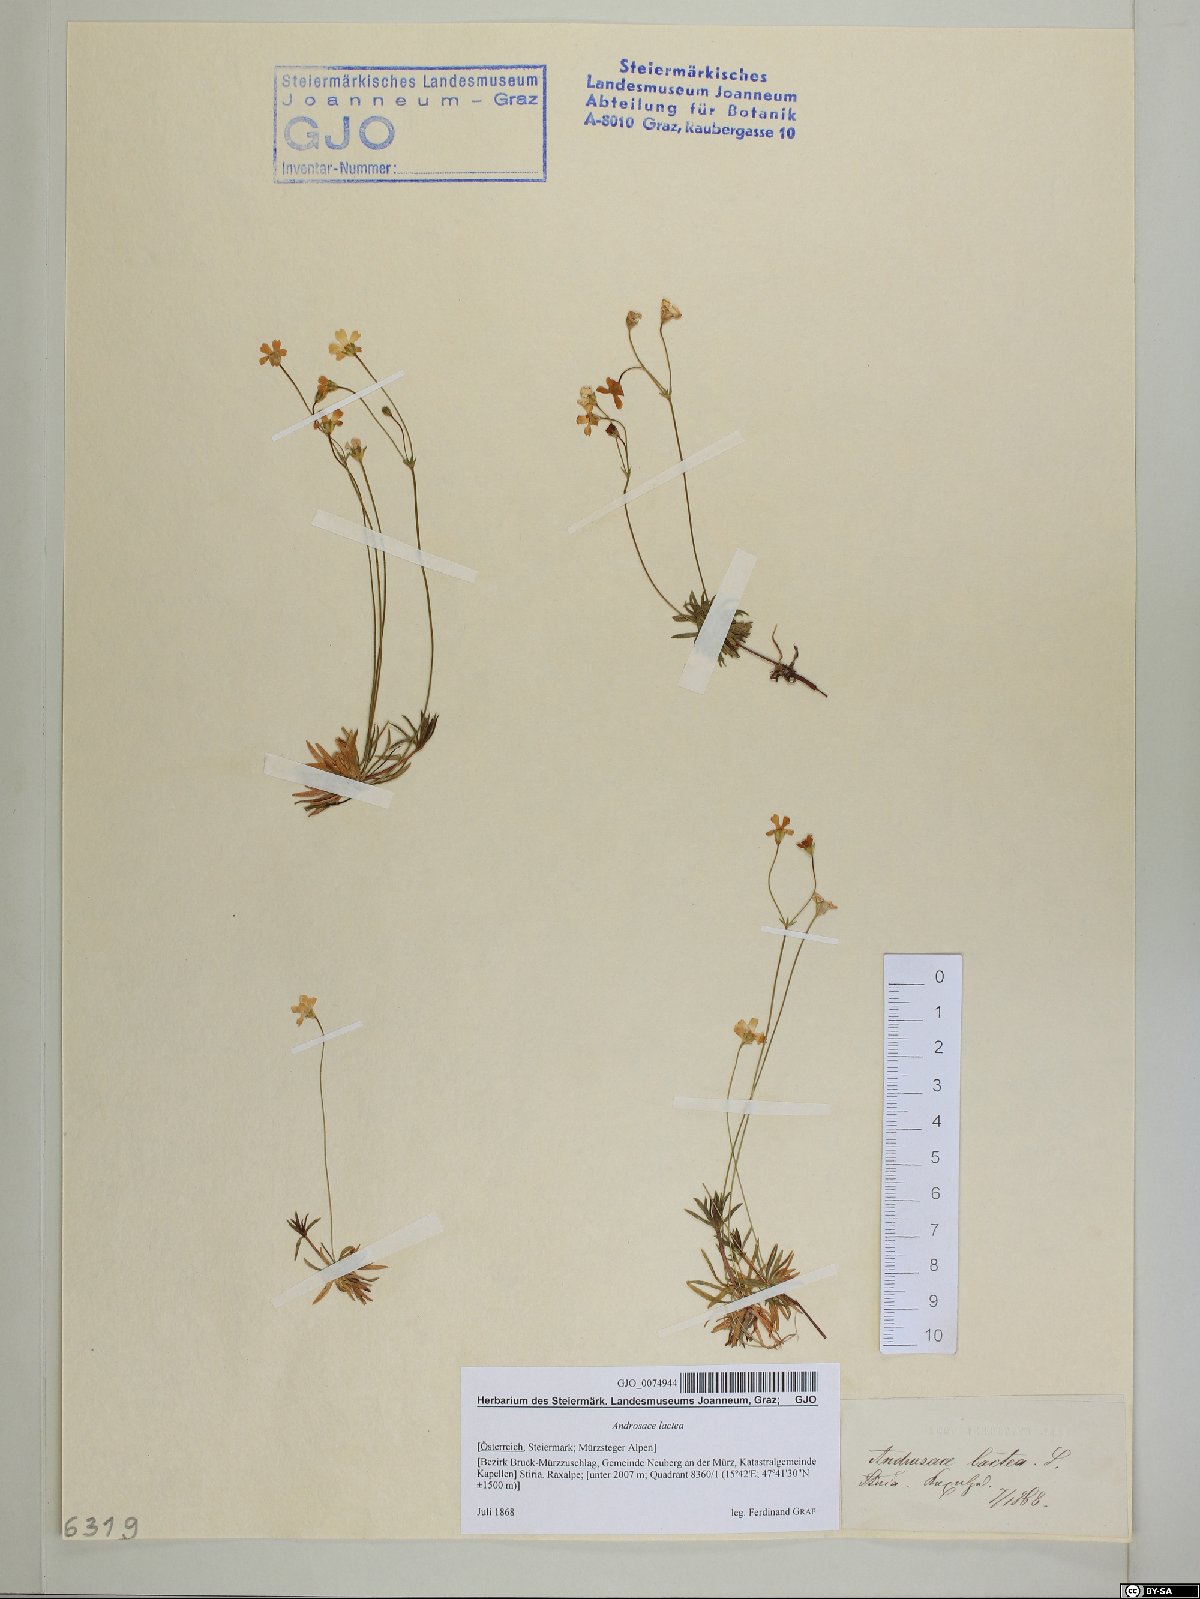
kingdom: Plantae
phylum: Tracheophyta
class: Magnoliopsida
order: Ericales
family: Primulaceae
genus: Androsace
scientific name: Androsace lactea
